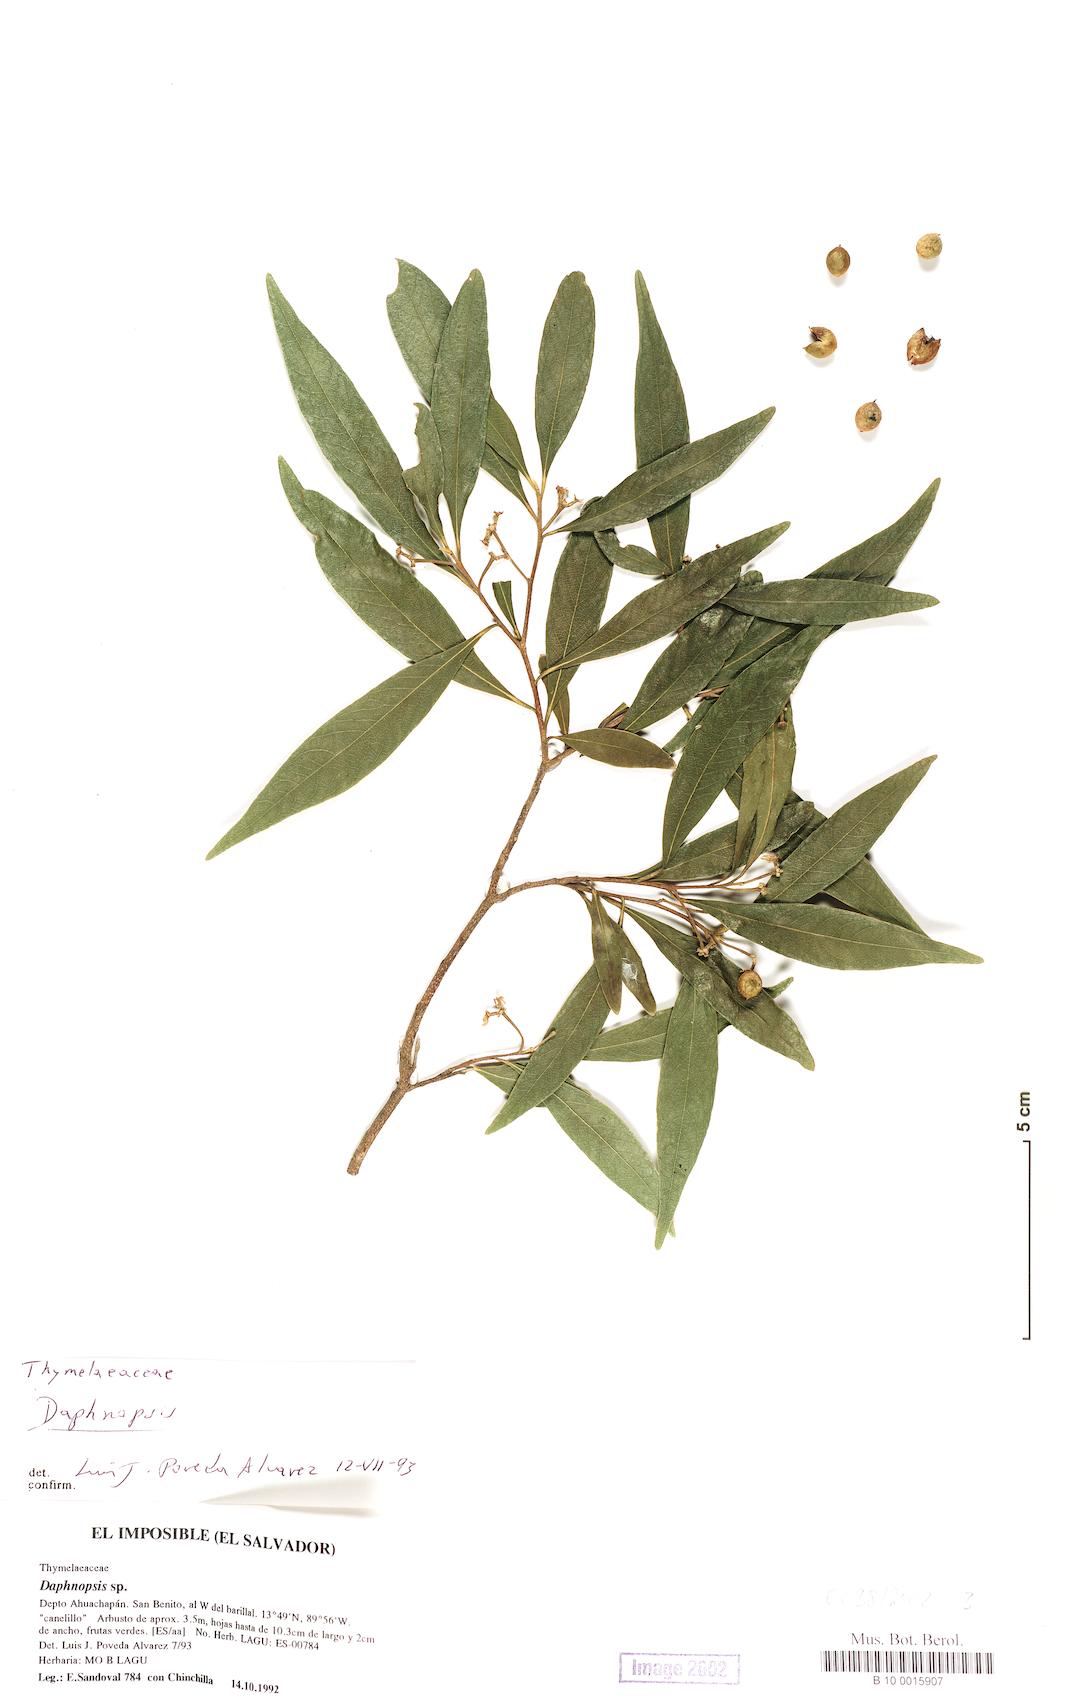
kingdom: Plantae
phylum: Tracheophyta
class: Magnoliopsida
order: Malvales
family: Thymelaeaceae
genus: Daphnopsis
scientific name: Daphnopsis witsbergeri
